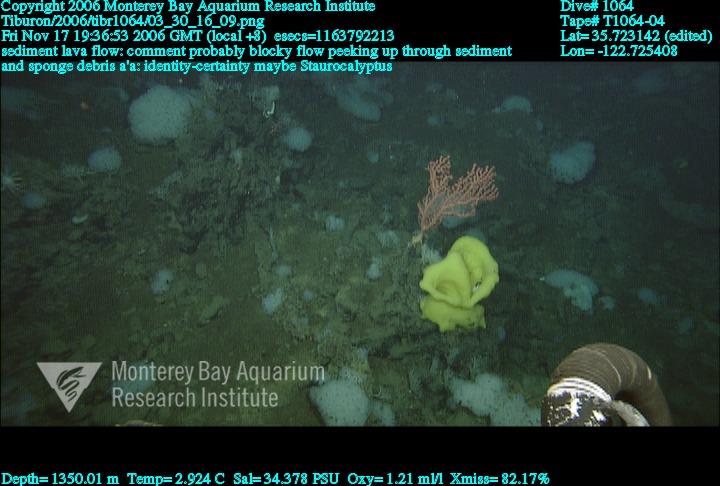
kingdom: Animalia
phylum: Porifera
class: Hexactinellida
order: Lyssacinosida
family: Rossellidae
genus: Staurocalyptus
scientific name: Staurocalyptus
